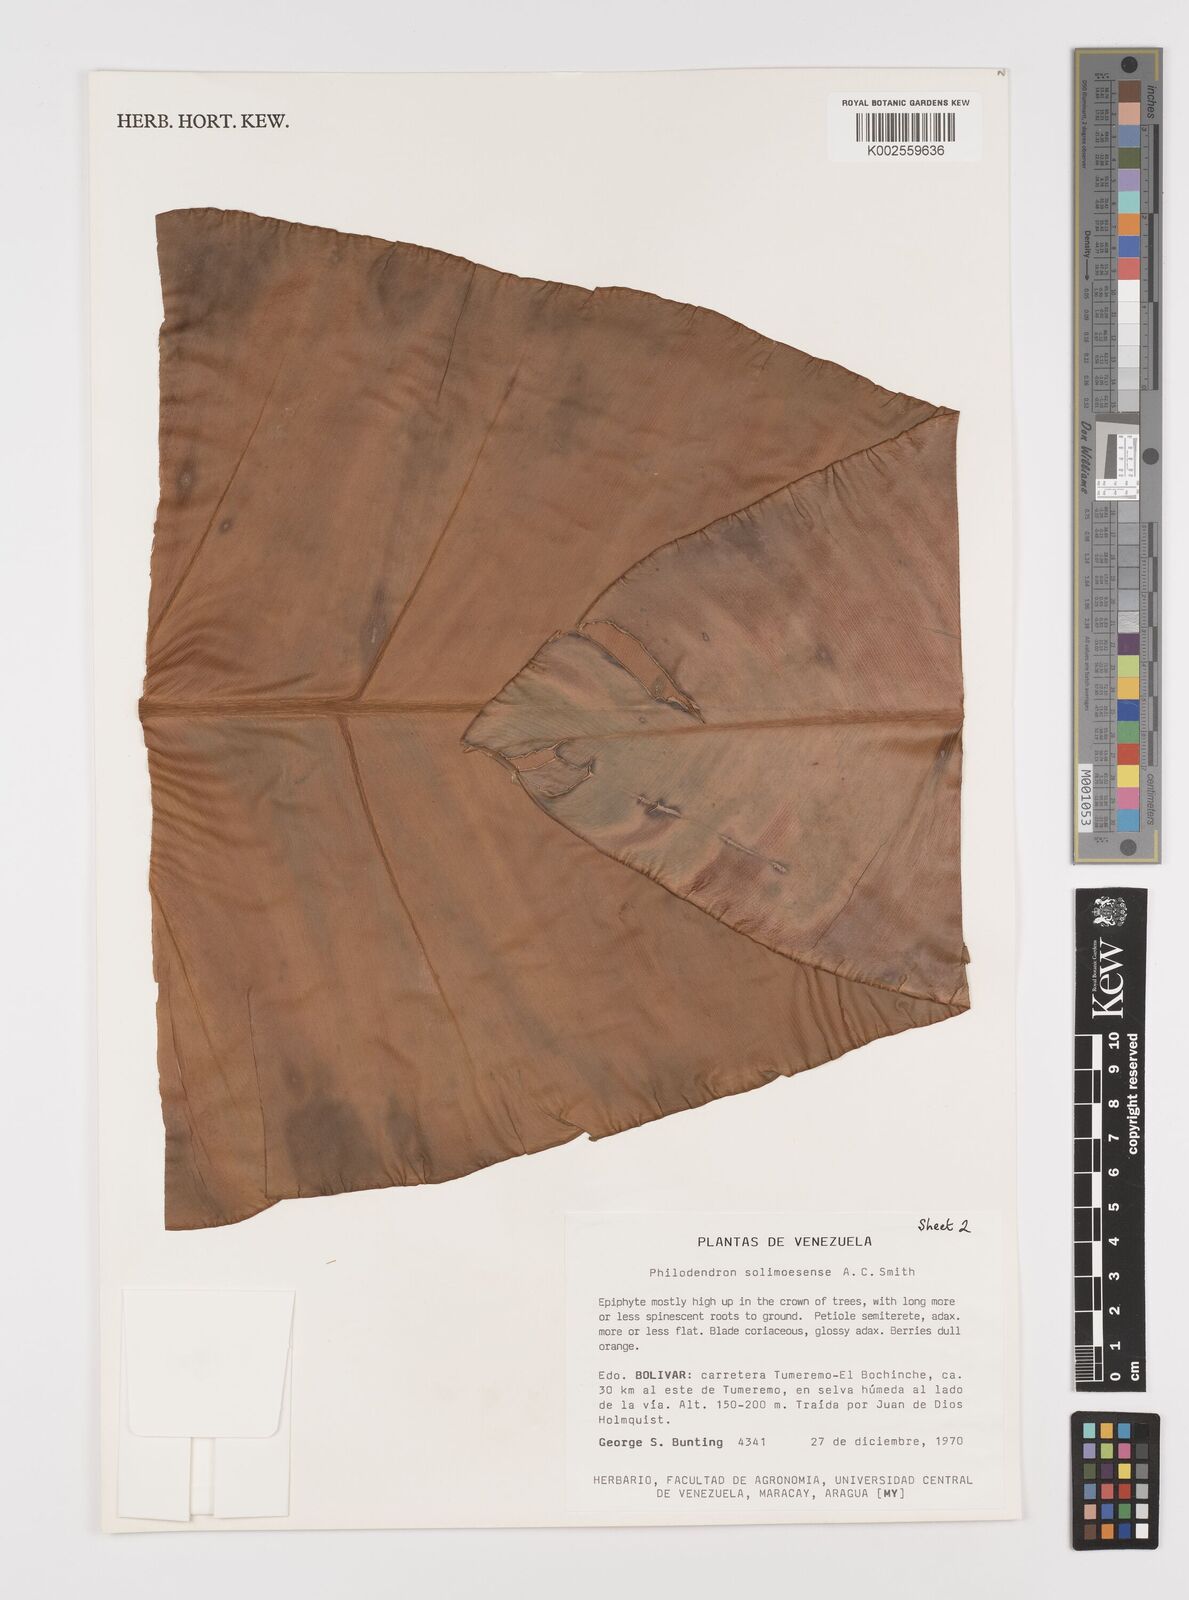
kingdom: Plantae
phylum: Tracheophyta
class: Liliopsida
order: Alismatales
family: Araceae
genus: Thaumatophyllum
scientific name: Thaumatophyllum solimoesense
